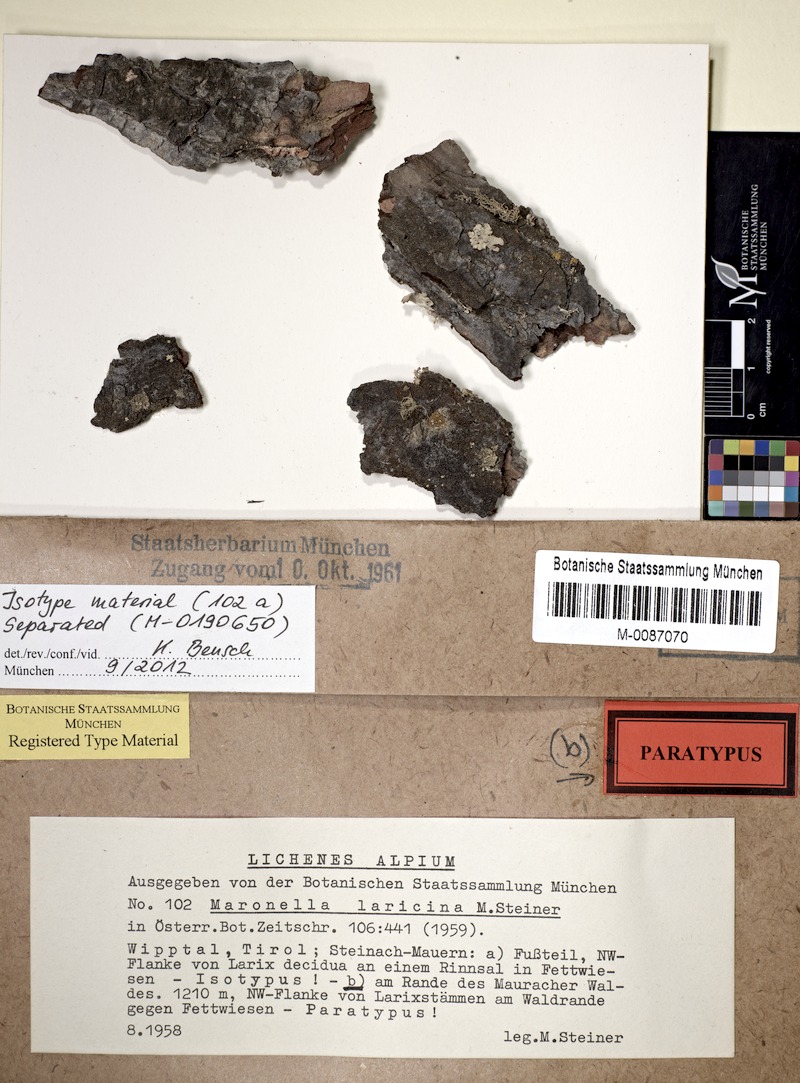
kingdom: Fungi
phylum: Ascomycota
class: Lecanoromycetes
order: Acarosporales
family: Acarosporaceae
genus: Maronella
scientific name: Maronella laricina
